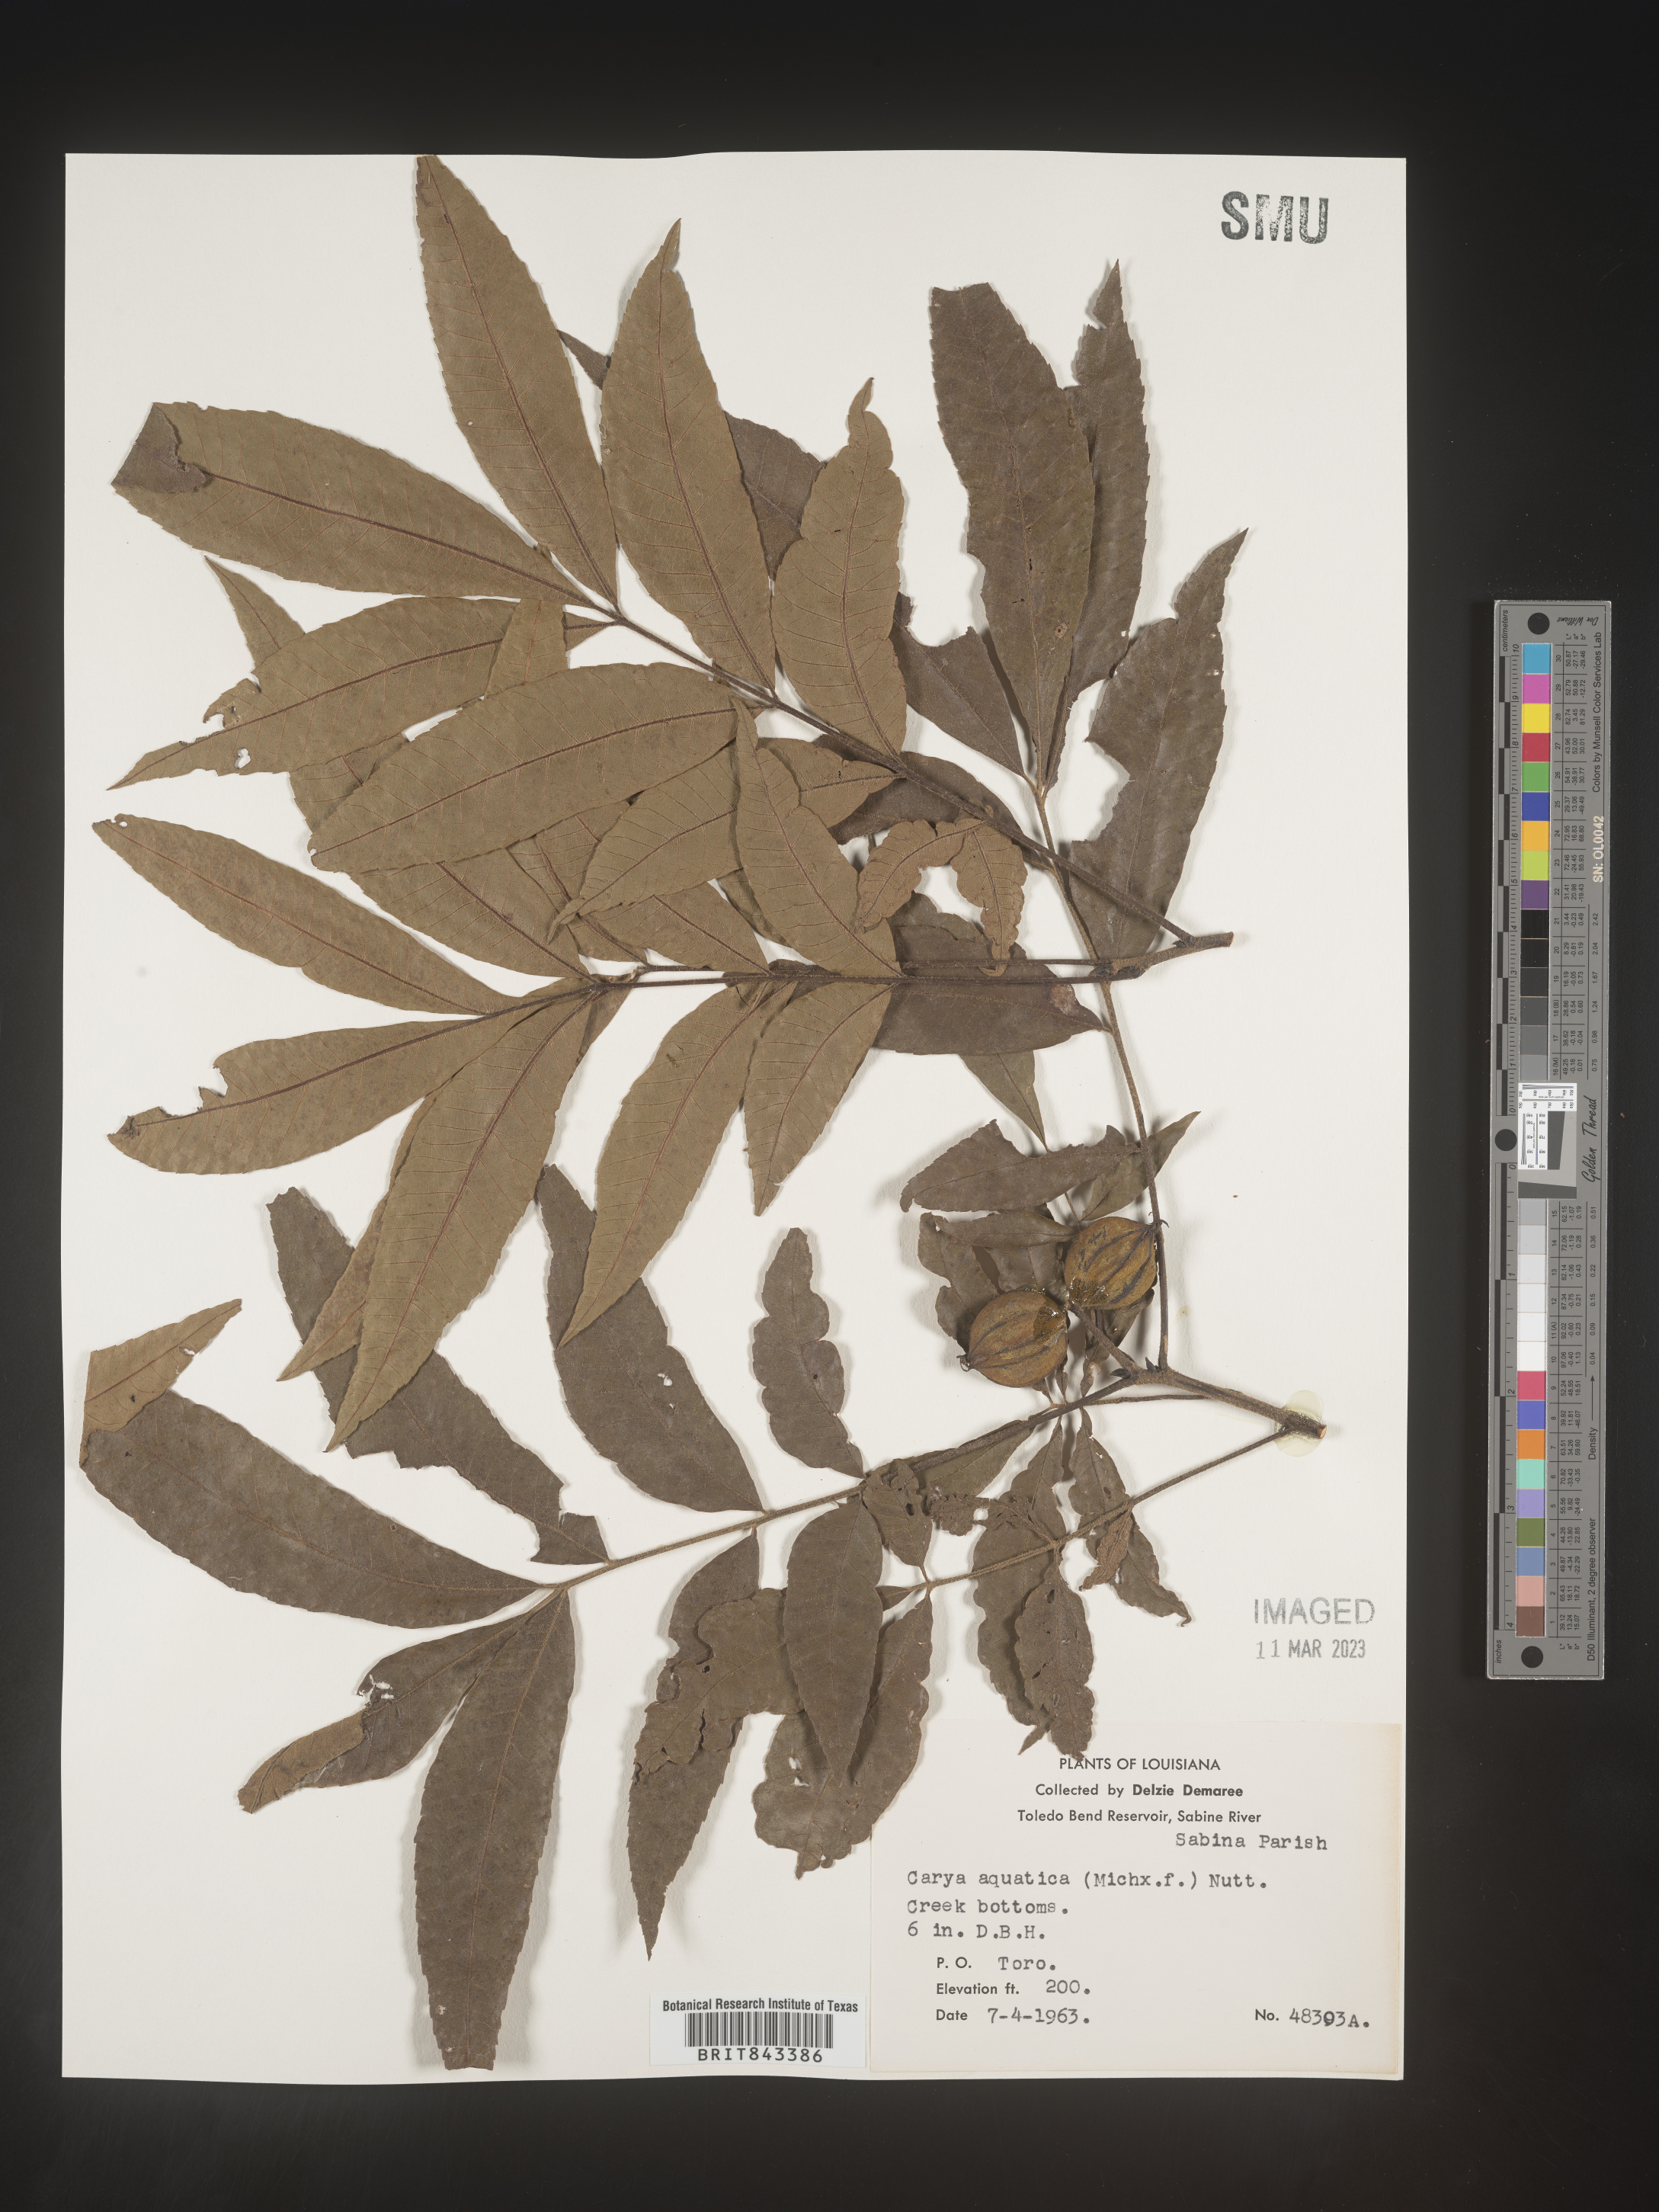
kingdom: Plantae
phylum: Tracheophyta
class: Magnoliopsida
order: Fagales
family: Juglandaceae
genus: Carya
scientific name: Carya aquatica
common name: Water hickory
